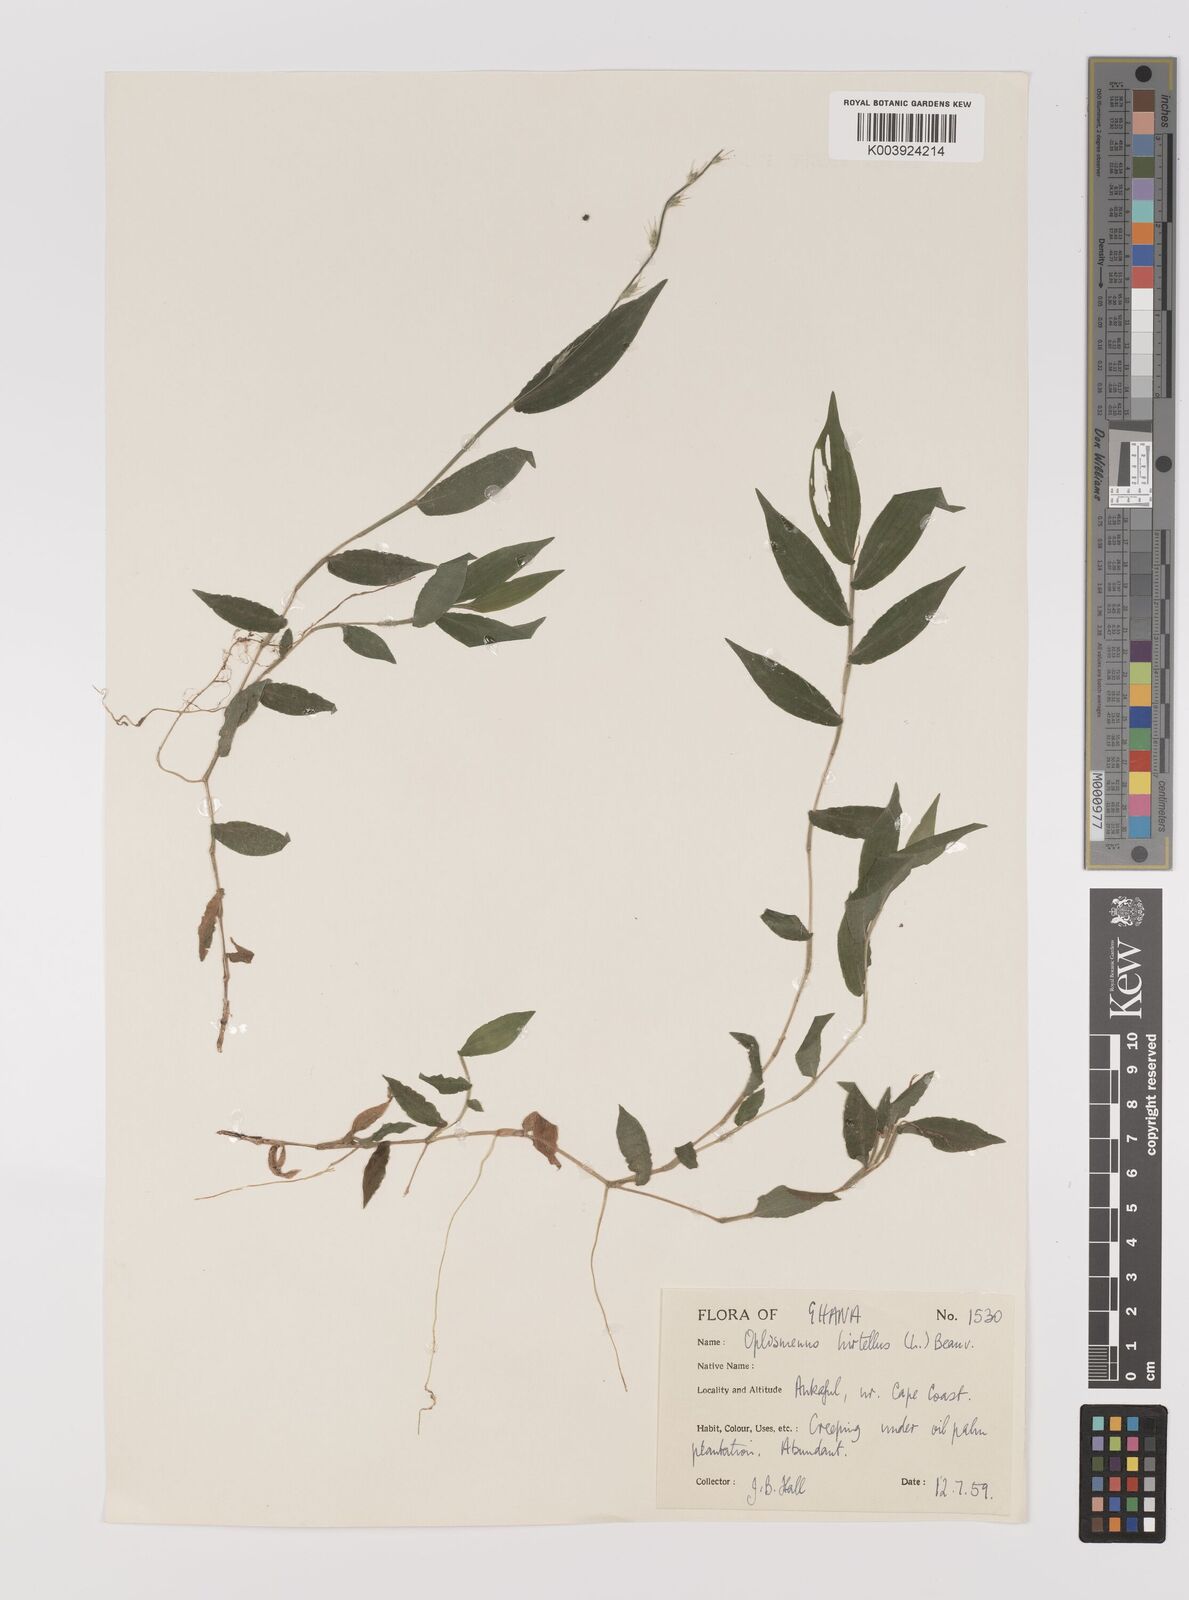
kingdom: Plantae
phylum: Tracheophyta
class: Liliopsida
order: Poales
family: Poaceae
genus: Oplismenus
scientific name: Oplismenus hirtellus
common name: Basketgrass
